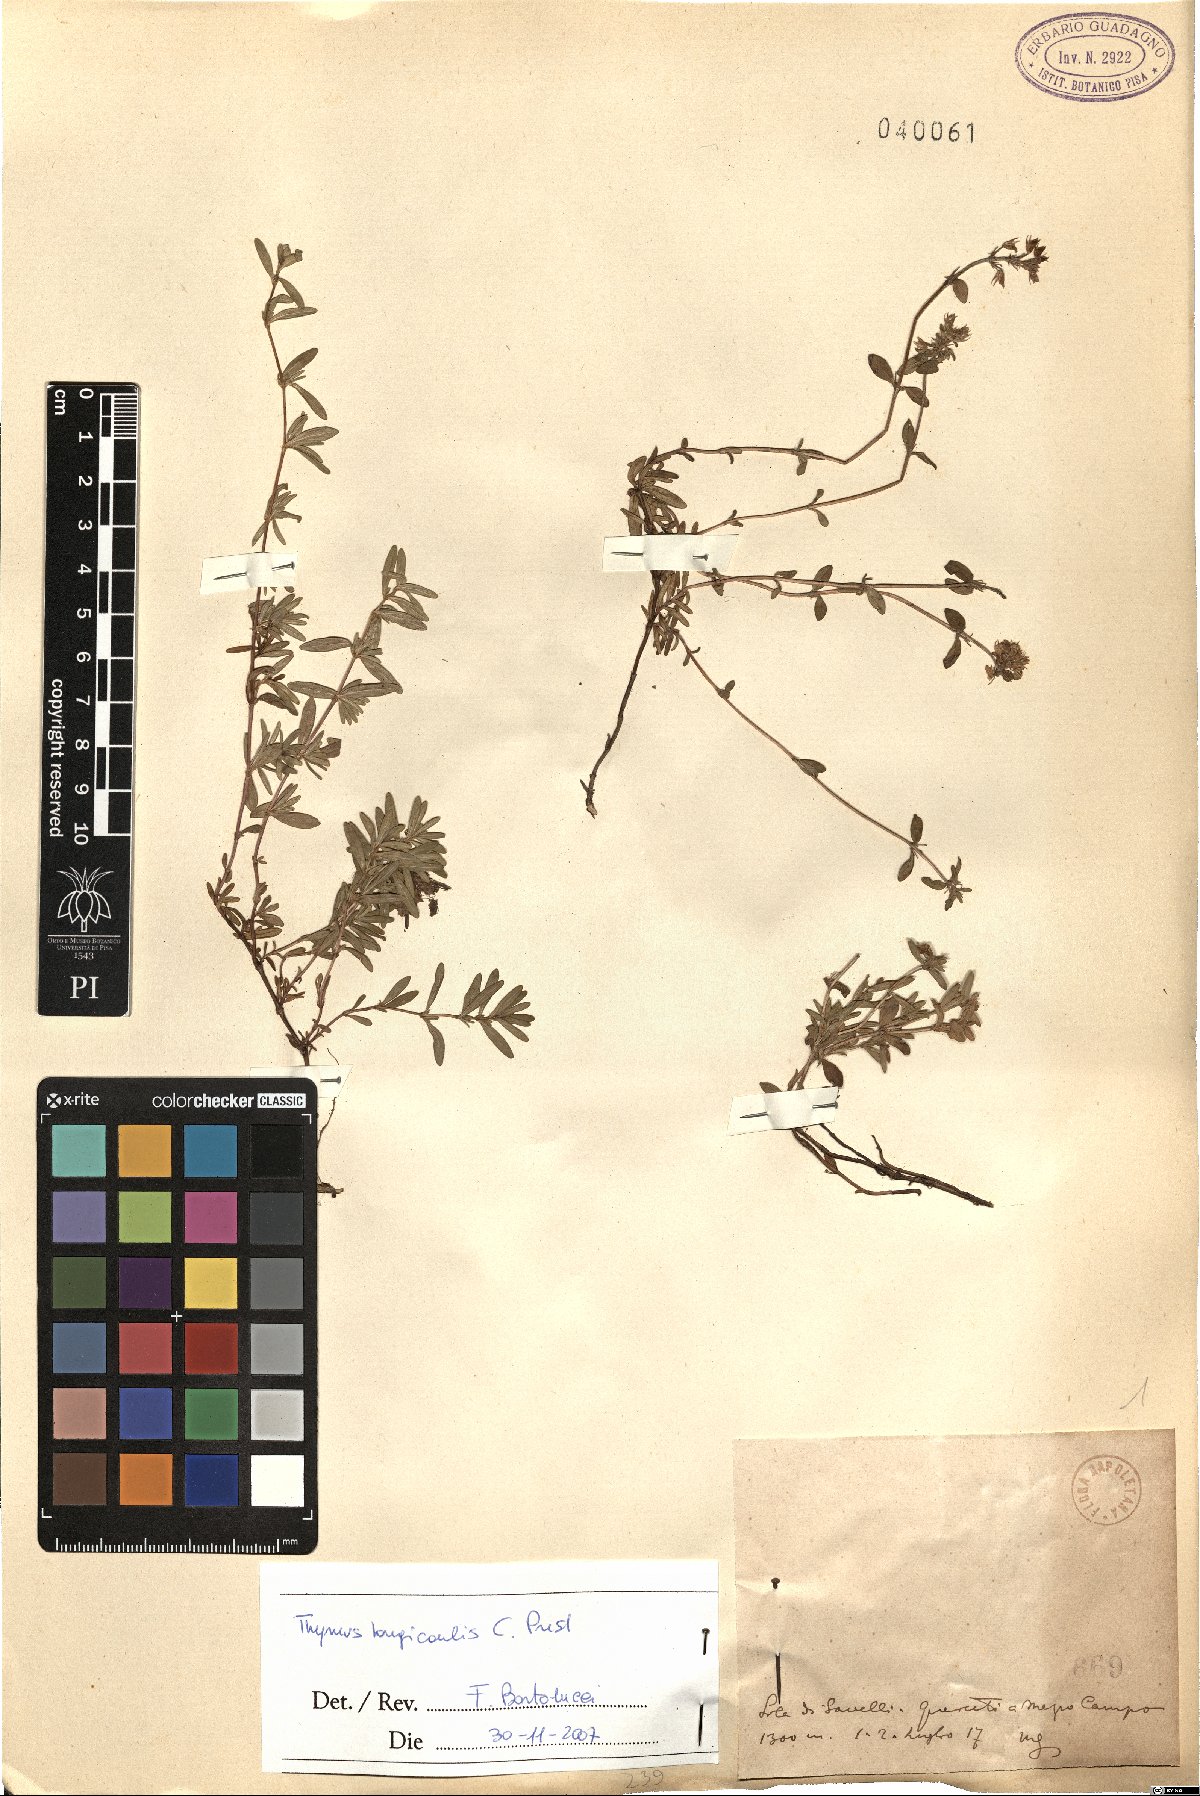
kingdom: Plantae
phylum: Tracheophyta
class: Magnoliopsida
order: Lamiales
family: Lamiaceae
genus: Thymus
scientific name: Thymus longicaulis
